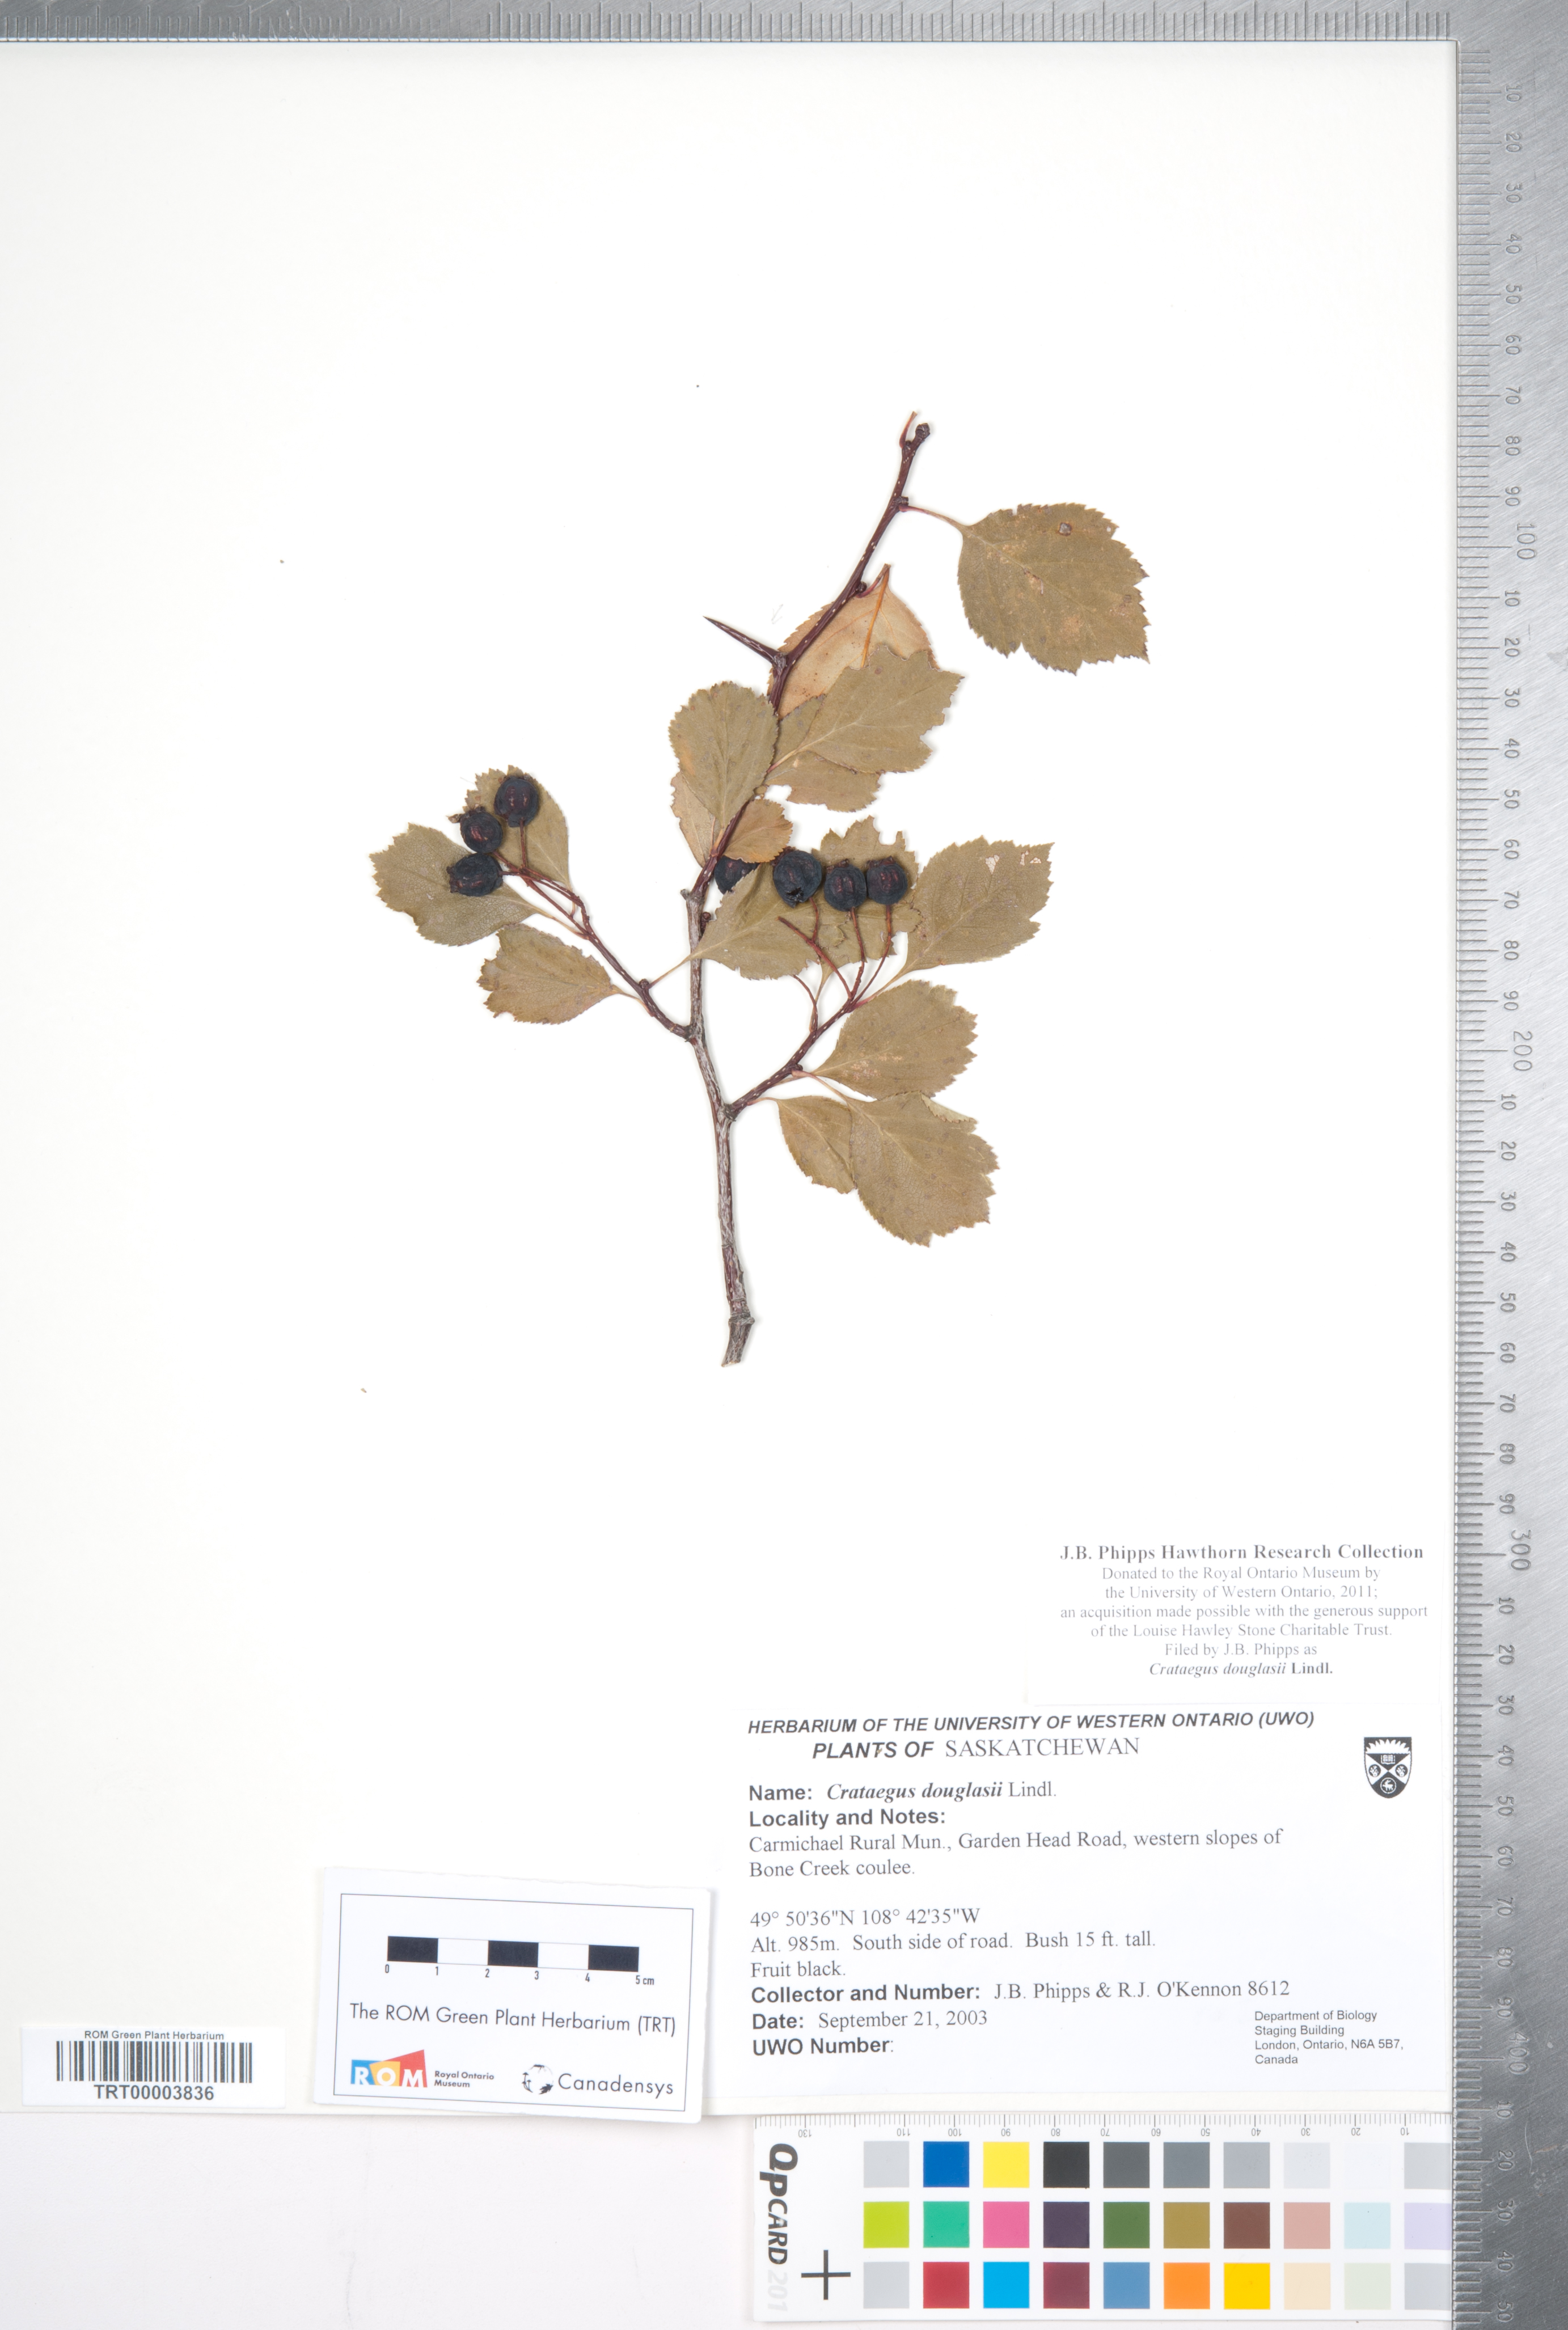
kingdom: Plantae
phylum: Tracheophyta
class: Magnoliopsida
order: Rosales
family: Rosaceae
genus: Crataegus
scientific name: Crataegus douglasii
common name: Black hawthorn
